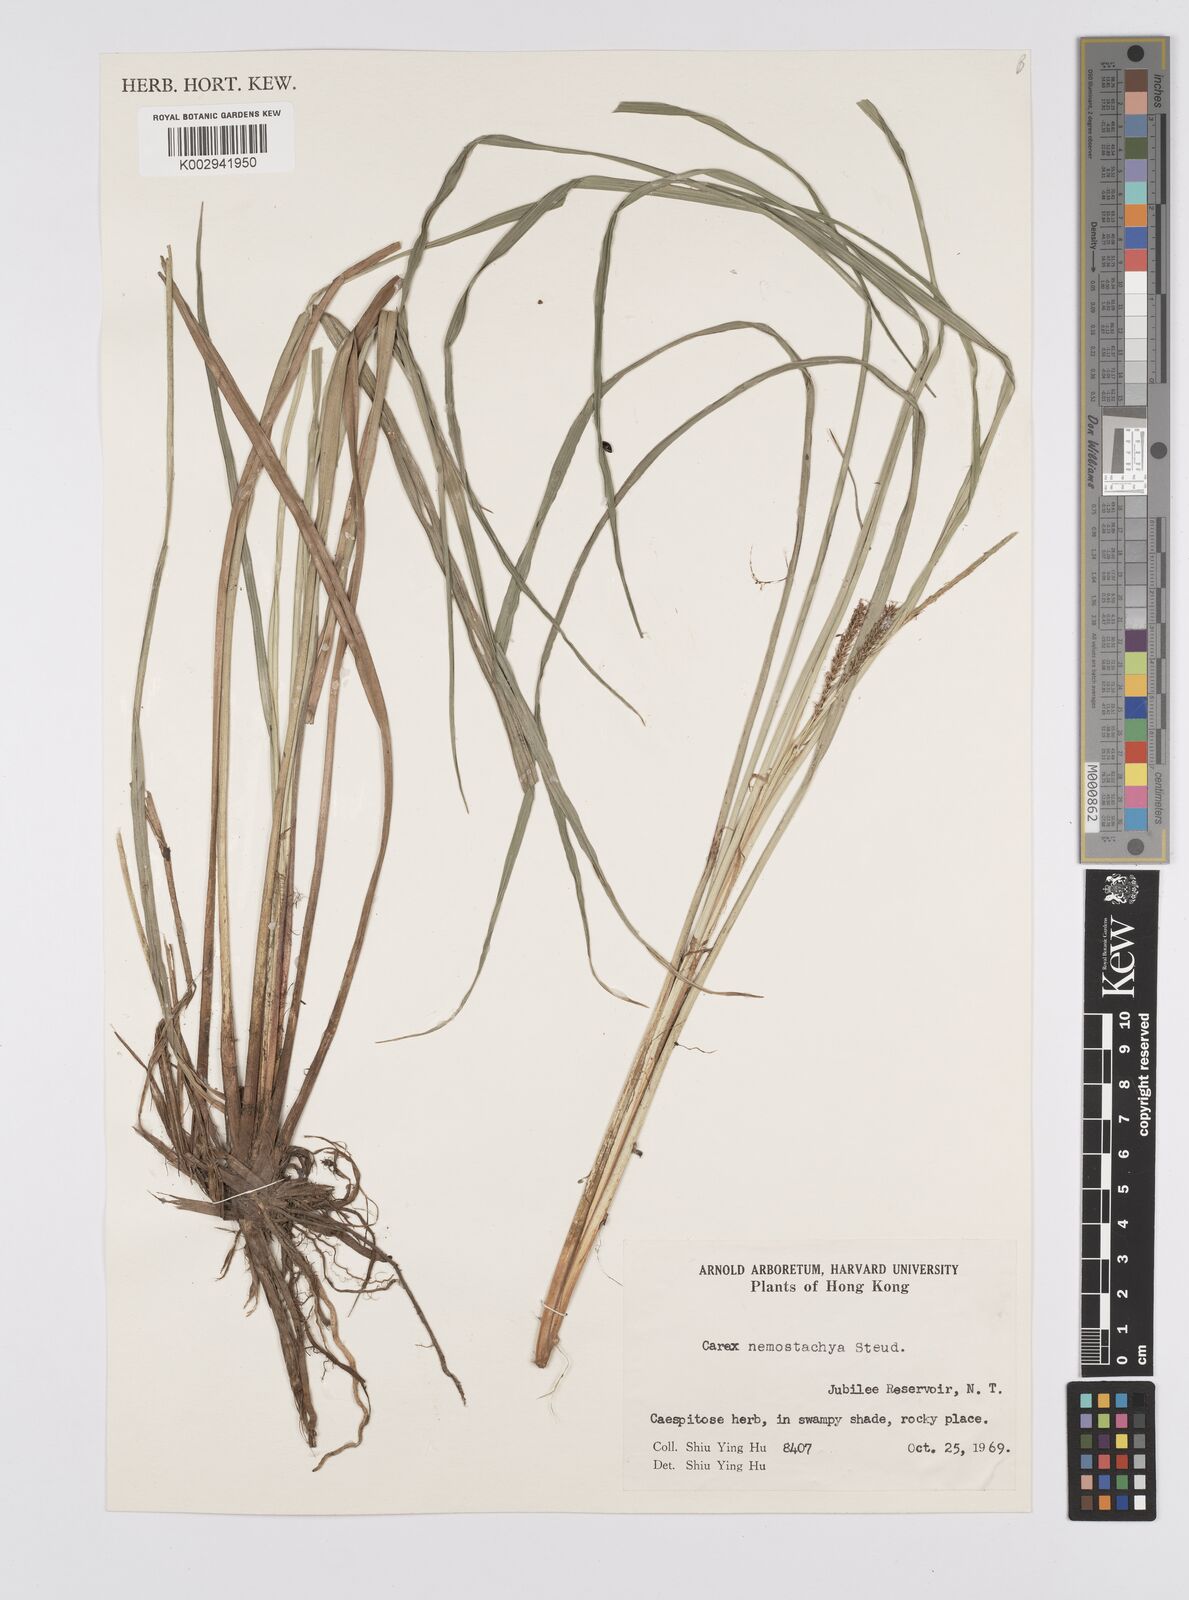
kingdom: Plantae
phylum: Tracheophyta
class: Liliopsida
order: Poales
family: Cyperaceae
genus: Carex
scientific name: Carex nemostachys
